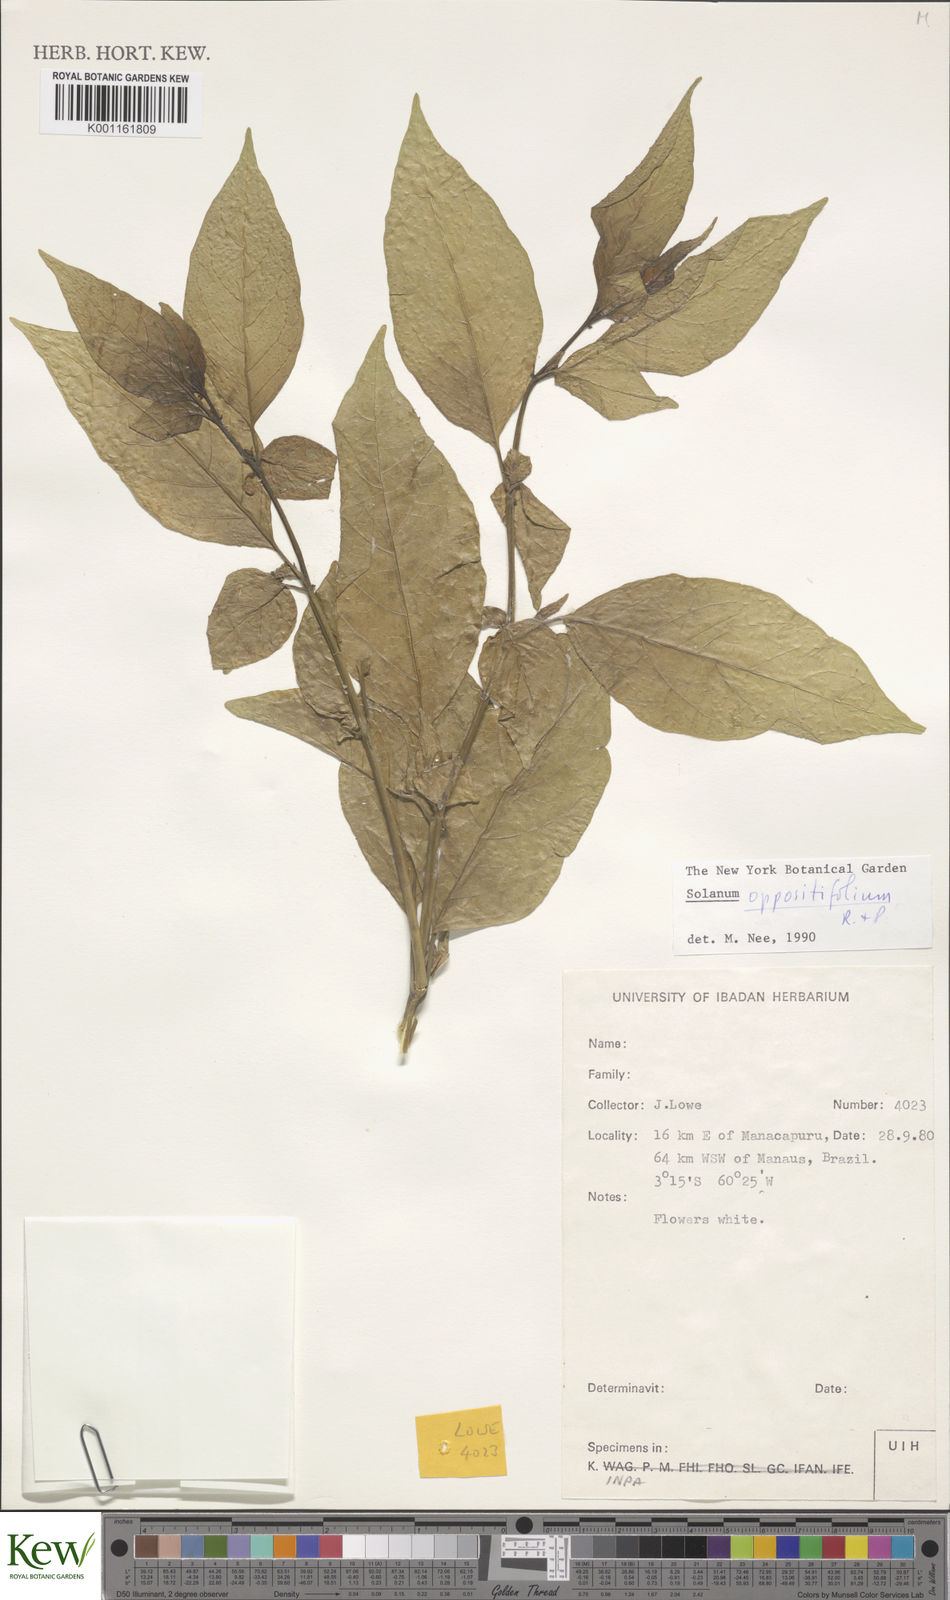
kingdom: Plantae
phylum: Tracheophyta
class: Magnoliopsida
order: Solanales
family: Solanaceae
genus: Solanum
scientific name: Solanum oppositifolium
